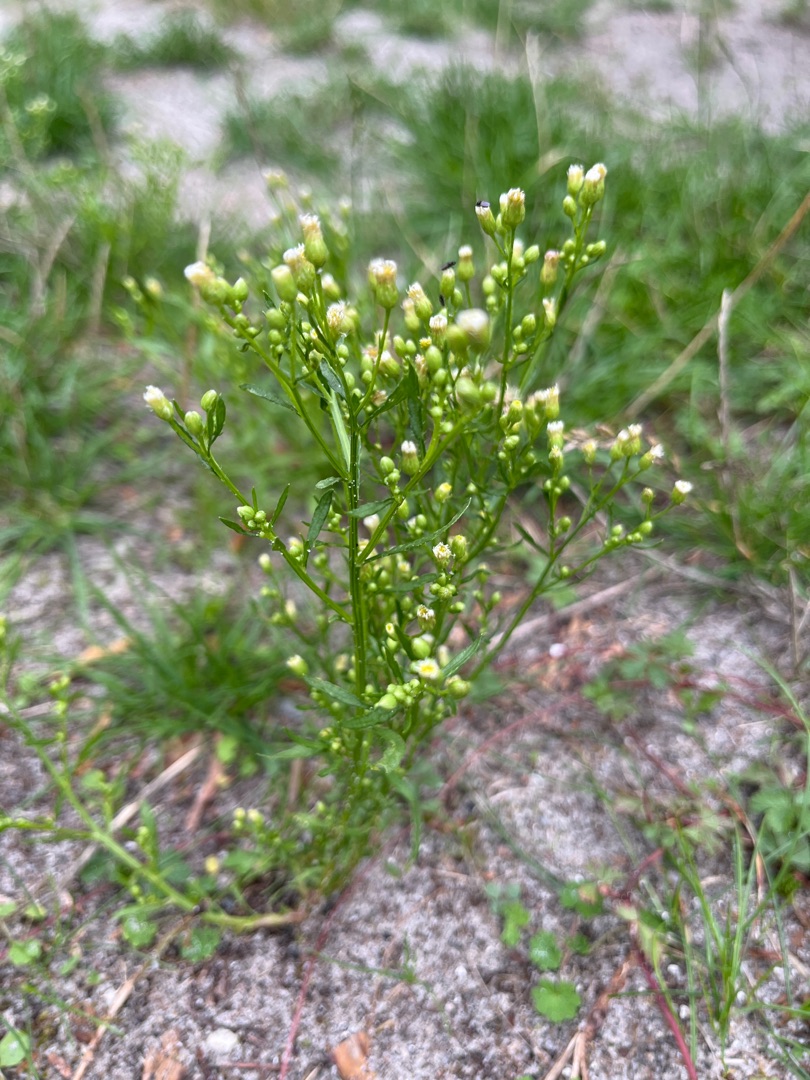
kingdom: Plantae
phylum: Tracheophyta
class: Magnoliopsida
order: Asterales
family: Asteraceae
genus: Erigeron
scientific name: Erigeron canadensis
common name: Kanadisk bakkestjerne
